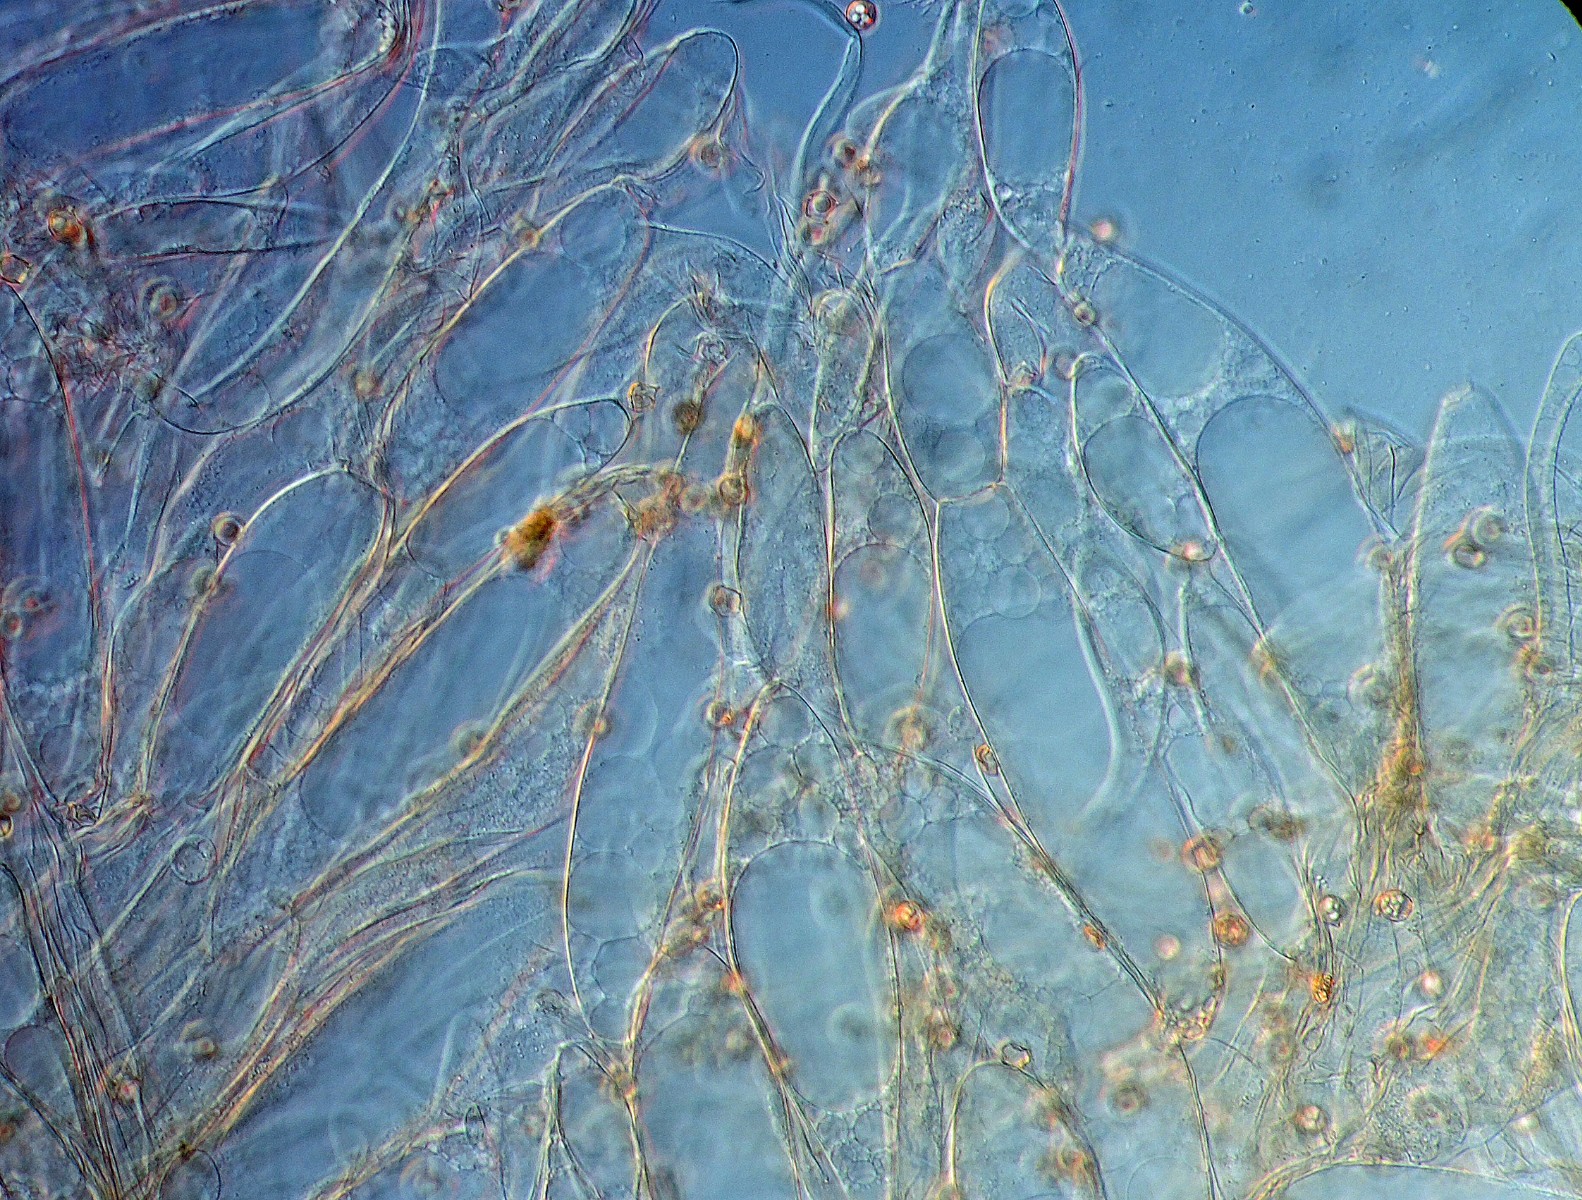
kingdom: Fungi
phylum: Basidiomycota
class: Agaricomycetes
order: Agaricales
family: Entolomataceae
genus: Entoloma
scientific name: Entoloma minutum
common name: liden rødblad
